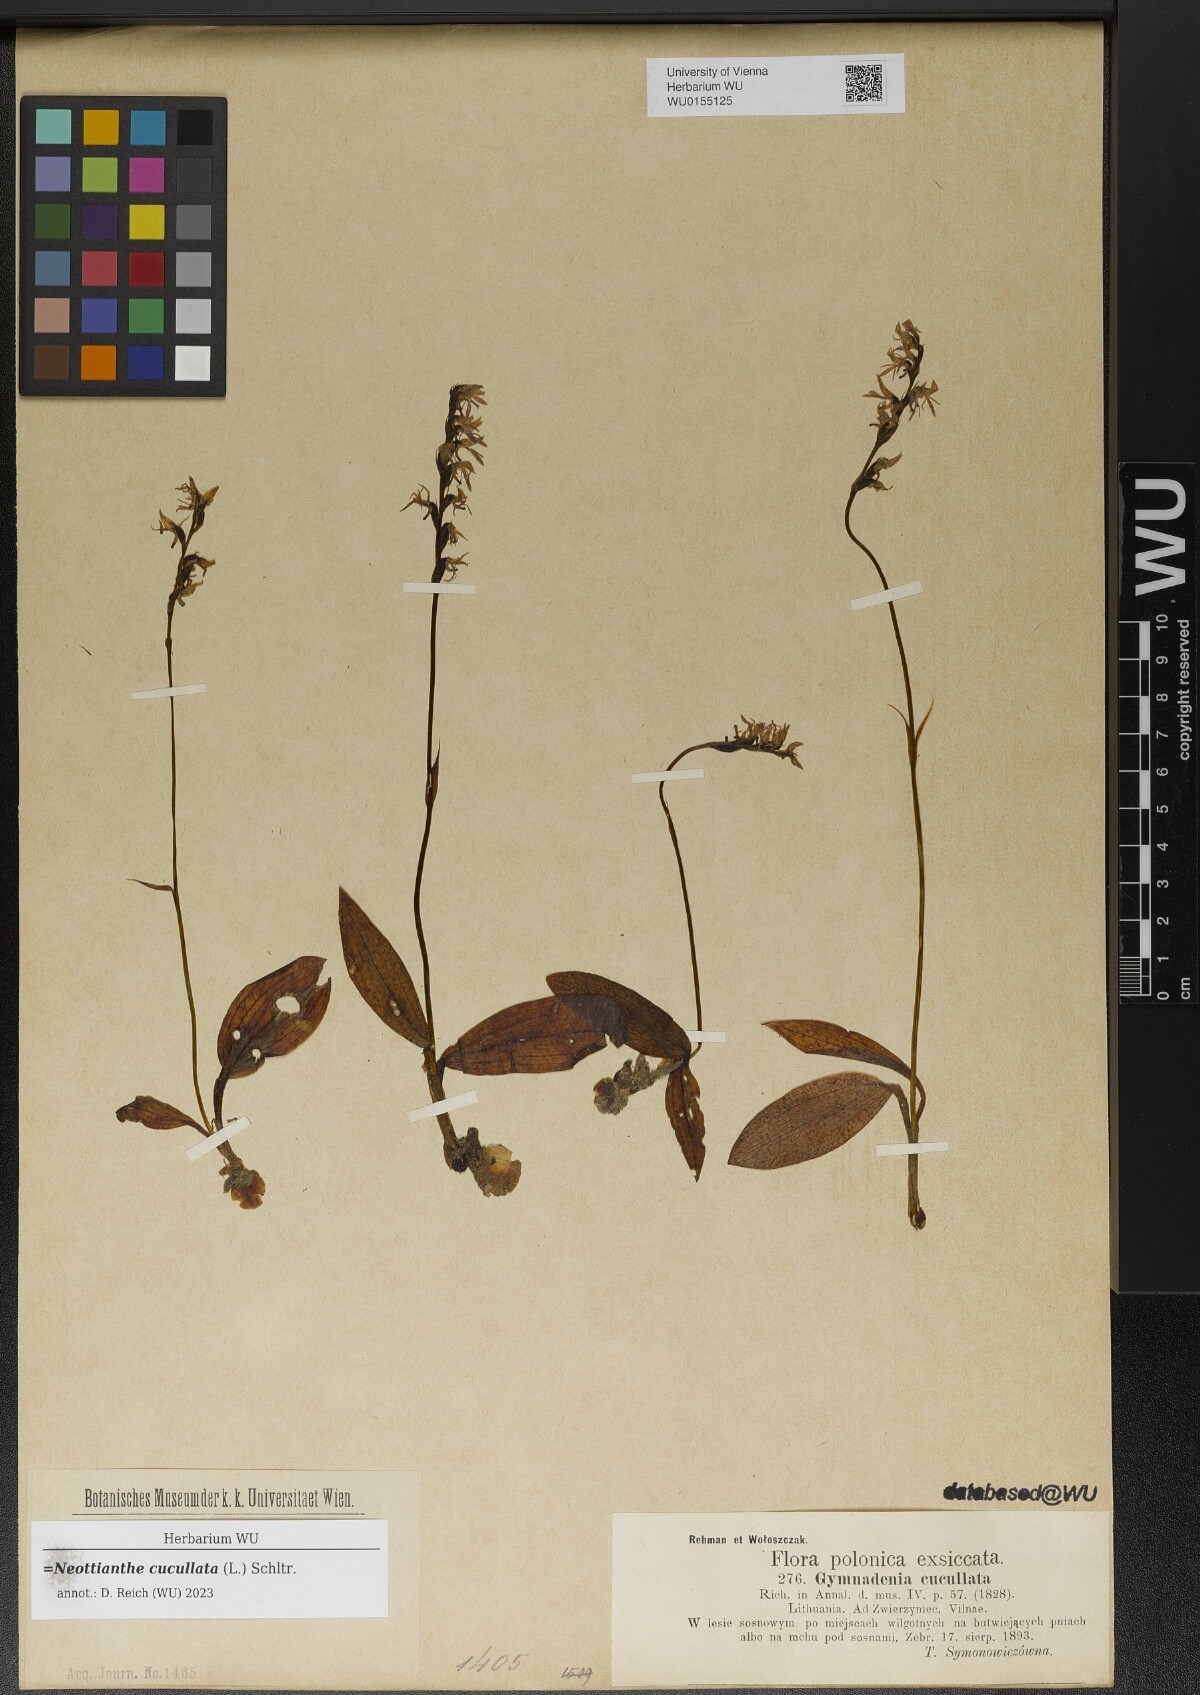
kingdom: Plantae
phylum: Tracheophyta
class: Liliopsida
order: Asparagales
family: Orchidaceae
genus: Hemipilia
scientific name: Hemipilia cucullata
